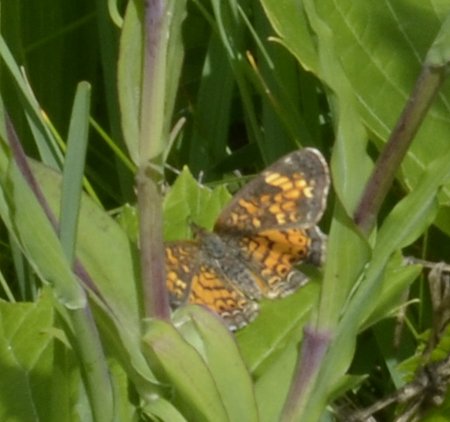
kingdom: Animalia
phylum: Arthropoda
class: Insecta
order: Lepidoptera
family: Nymphalidae
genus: Phyciodes
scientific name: Phyciodes tharos
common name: Pearl Crescent
